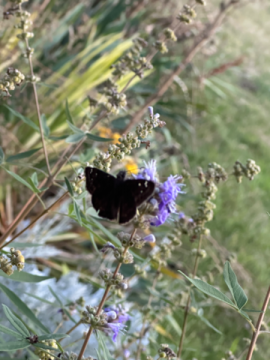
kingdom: Animalia
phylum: Arthropoda
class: Insecta
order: Lepidoptera
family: Hesperiidae
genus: Pholisora
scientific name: Pholisora catullus
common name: Common Sootywing
